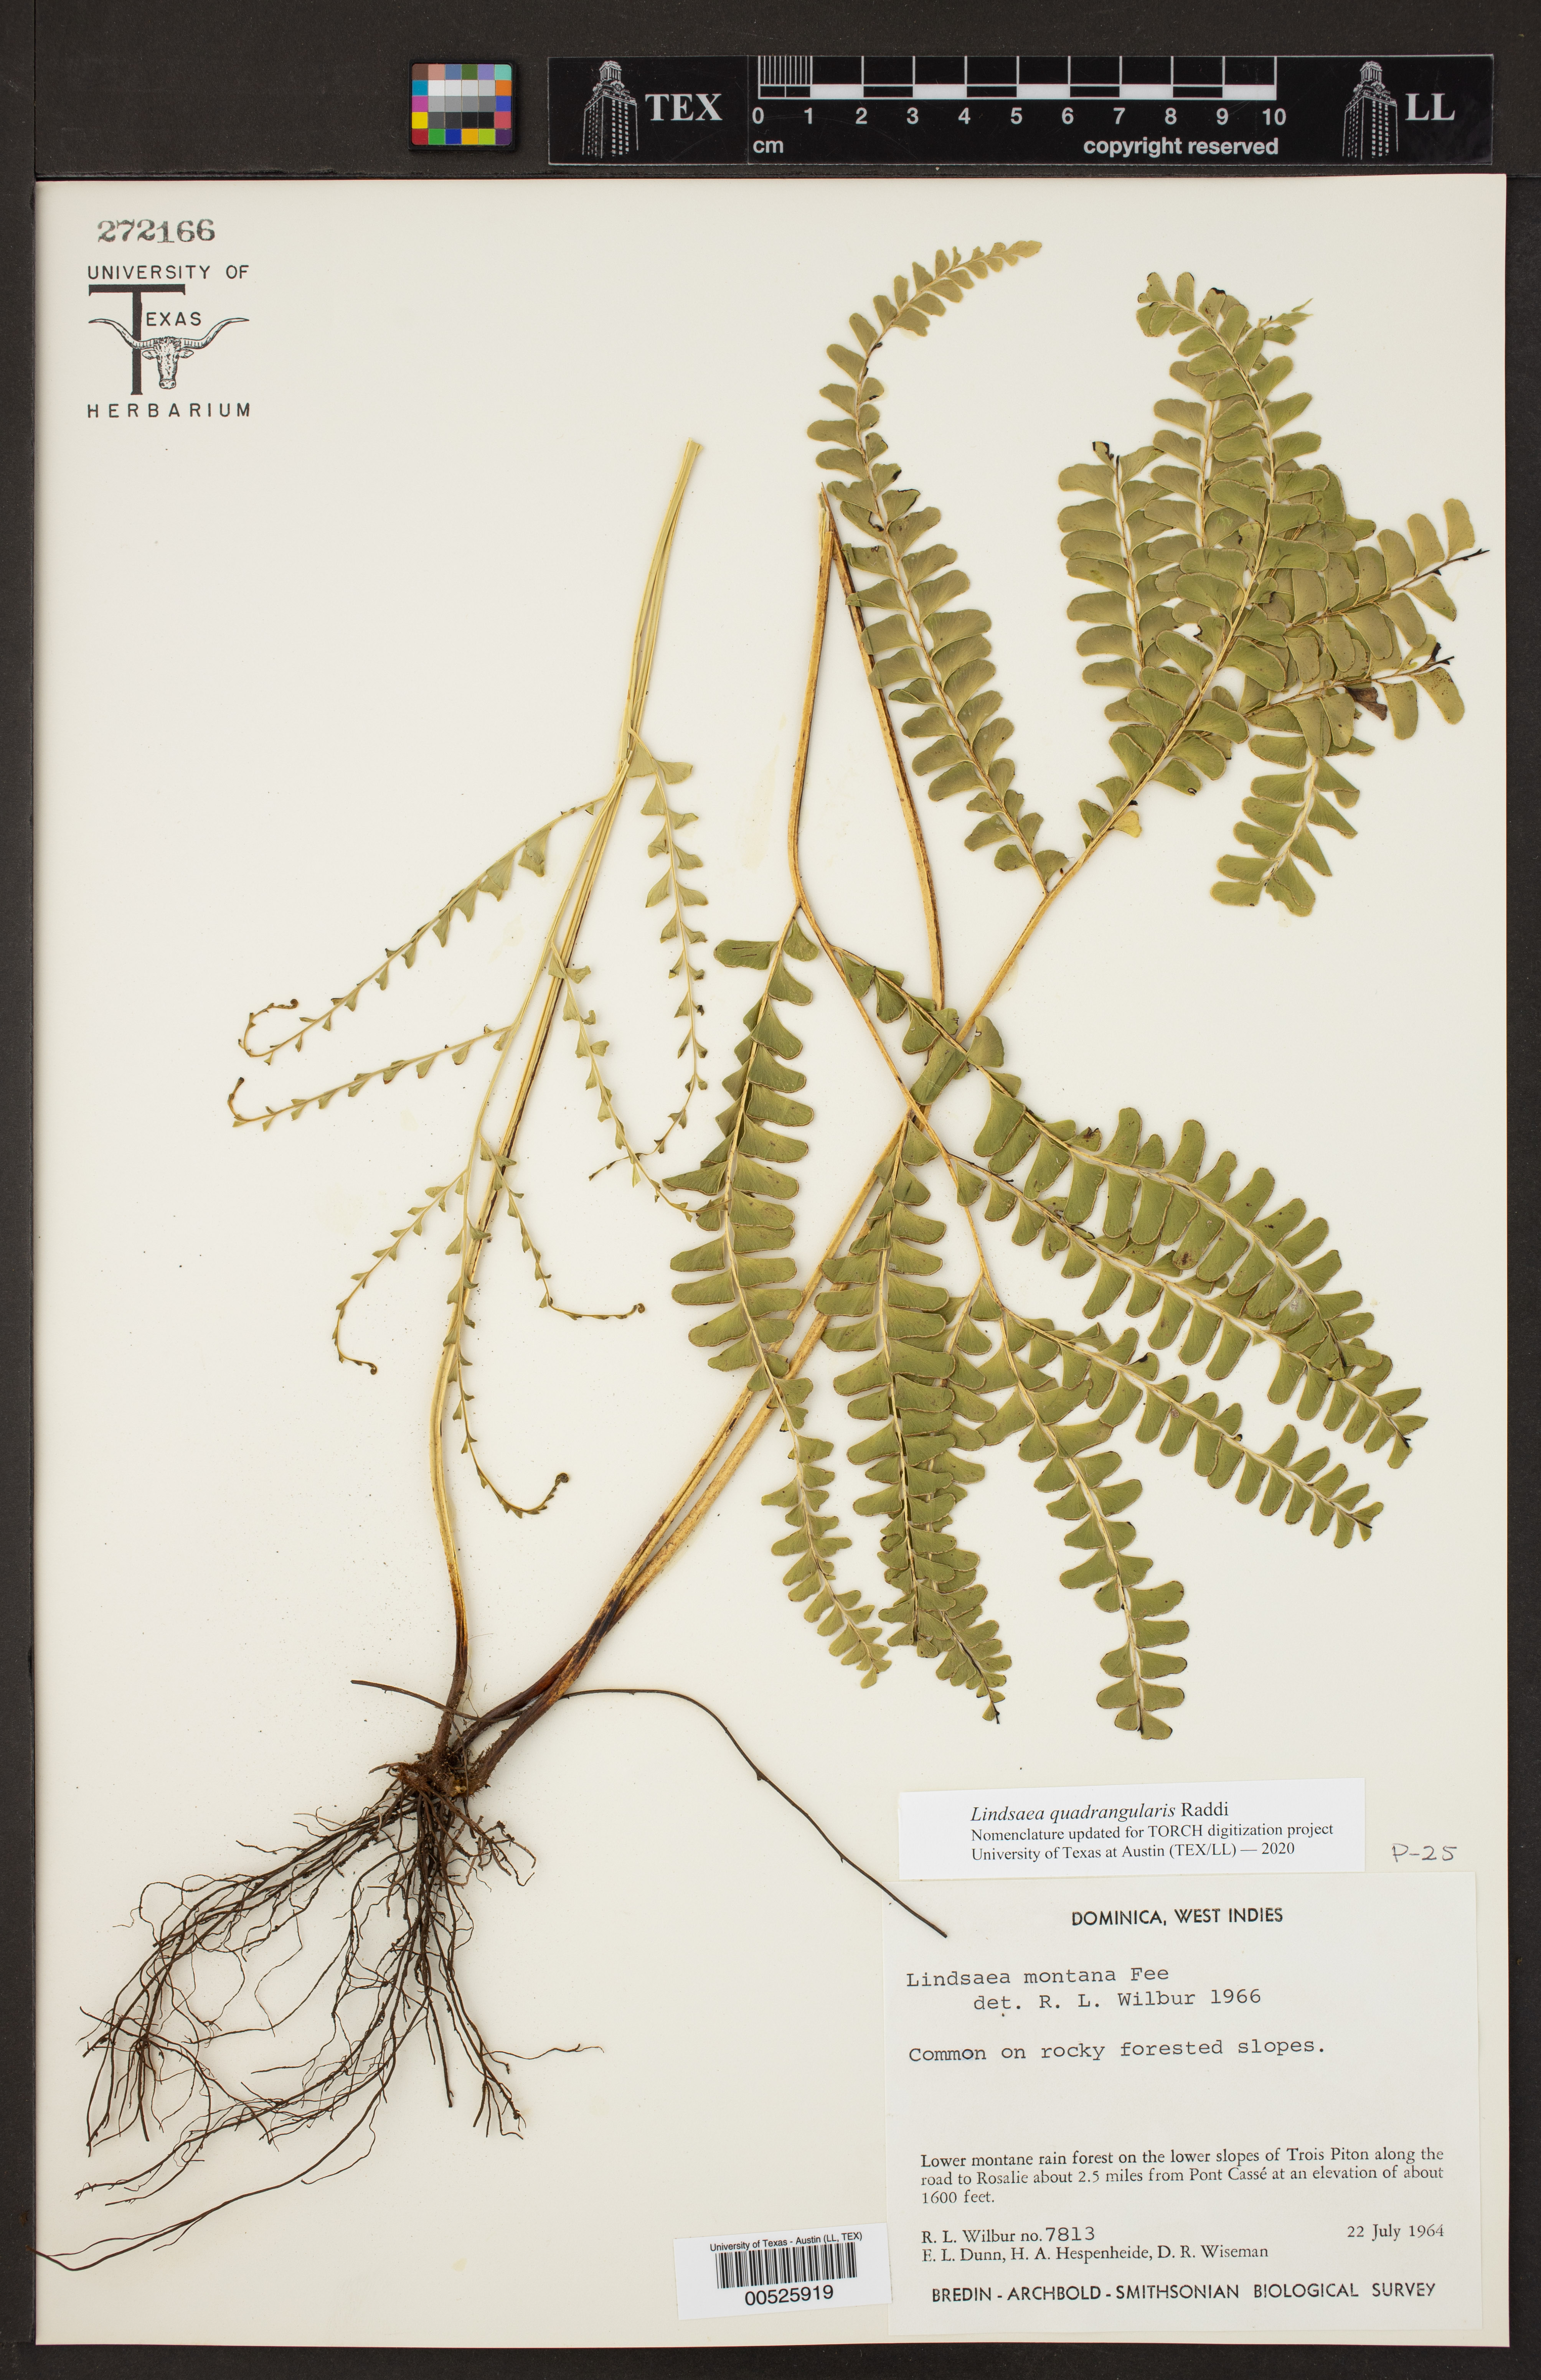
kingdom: Plantae
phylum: Tracheophyta
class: Polypodiopsida
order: Polypodiales
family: Lindsaeaceae
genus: Lindsaea
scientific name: Lindsaea quadrangularis
